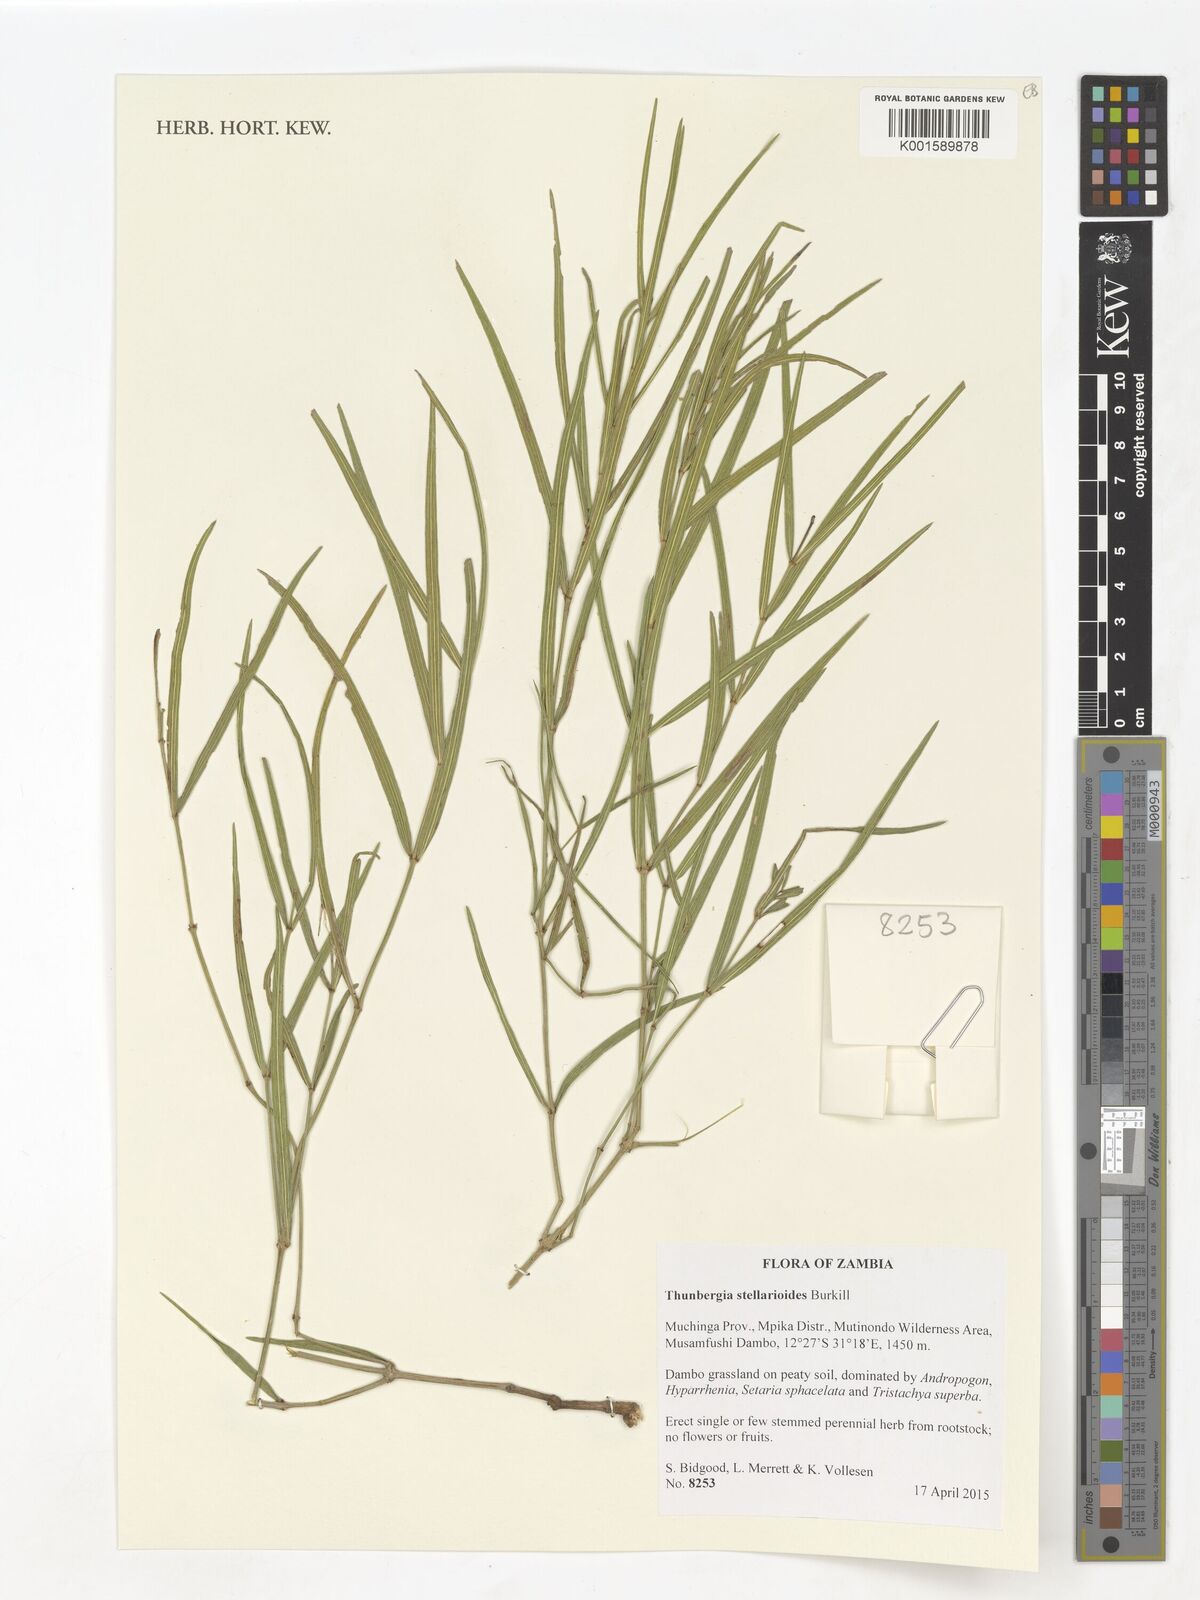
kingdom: Plantae
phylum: Tracheophyta
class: Magnoliopsida
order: Lamiales
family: Acanthaceae
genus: Thunbergia
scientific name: Thunbergia stellarioides
